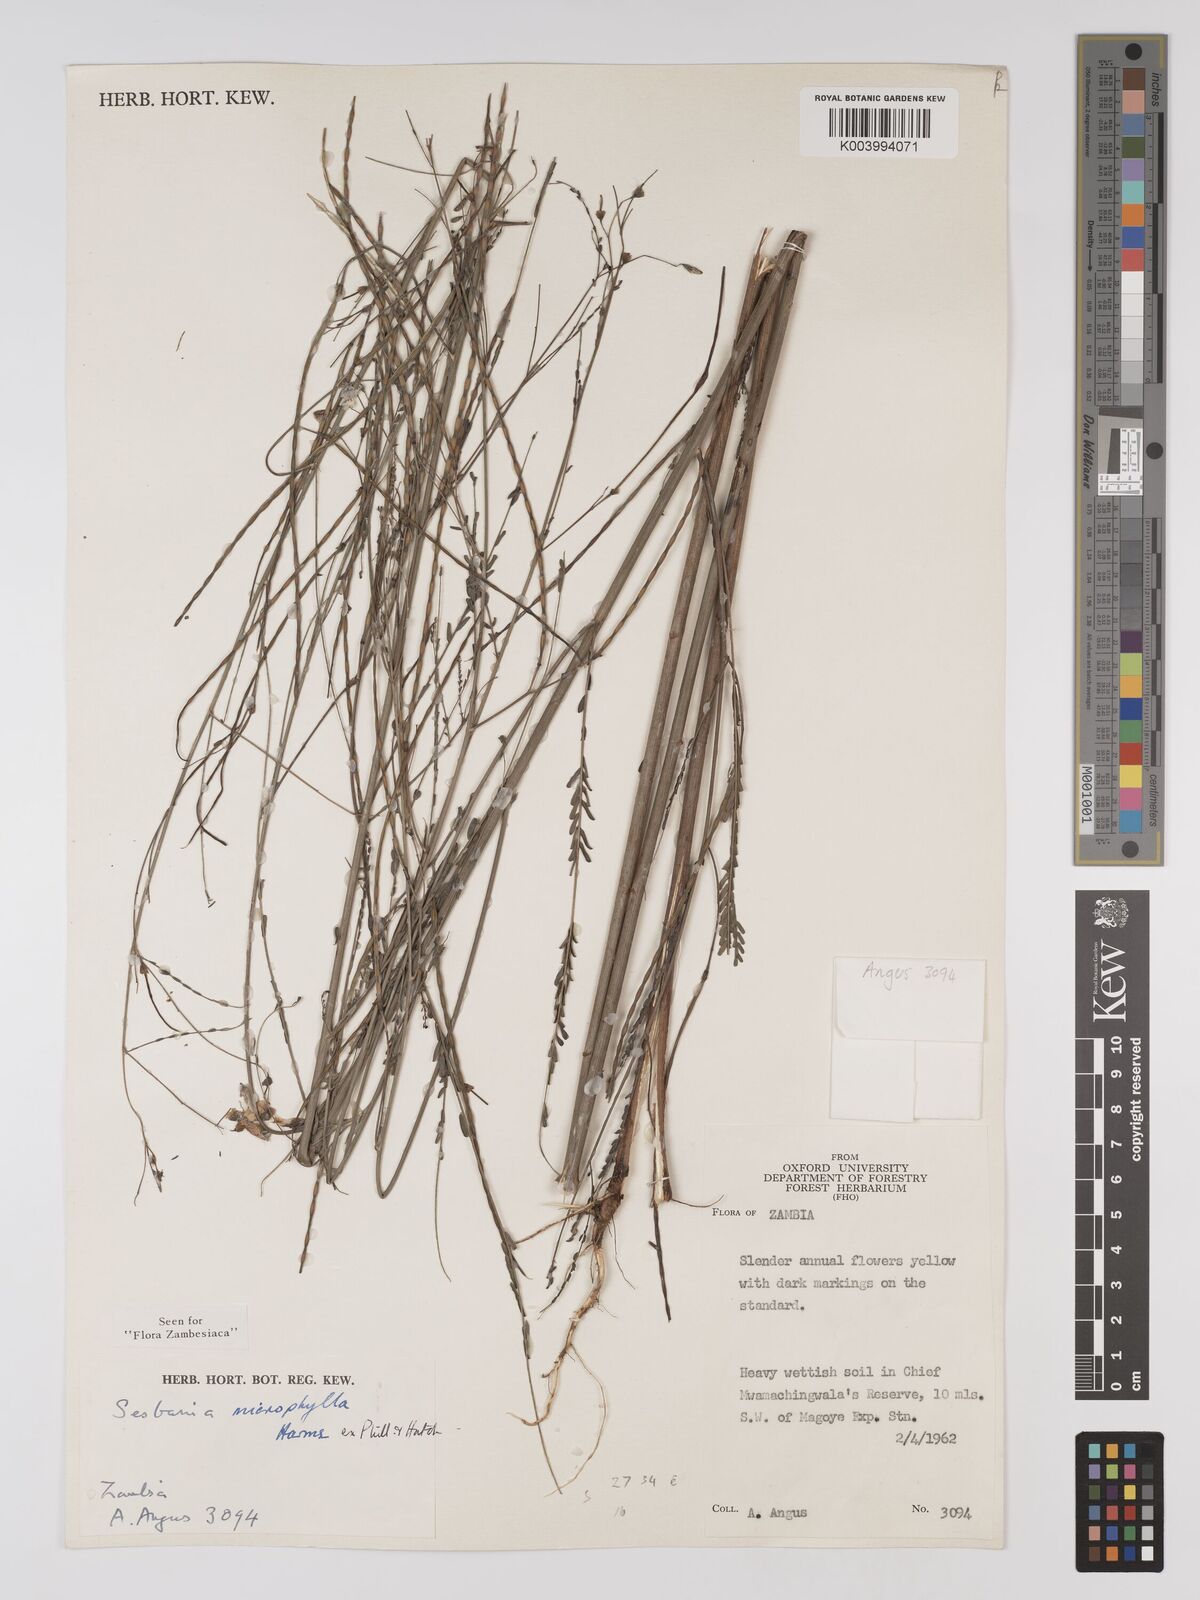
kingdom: Plantae
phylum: Tracheophyta
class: Magnoliopsida
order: Fabales
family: Fabaceae
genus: Sesbania
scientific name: Sesbania microphylla
